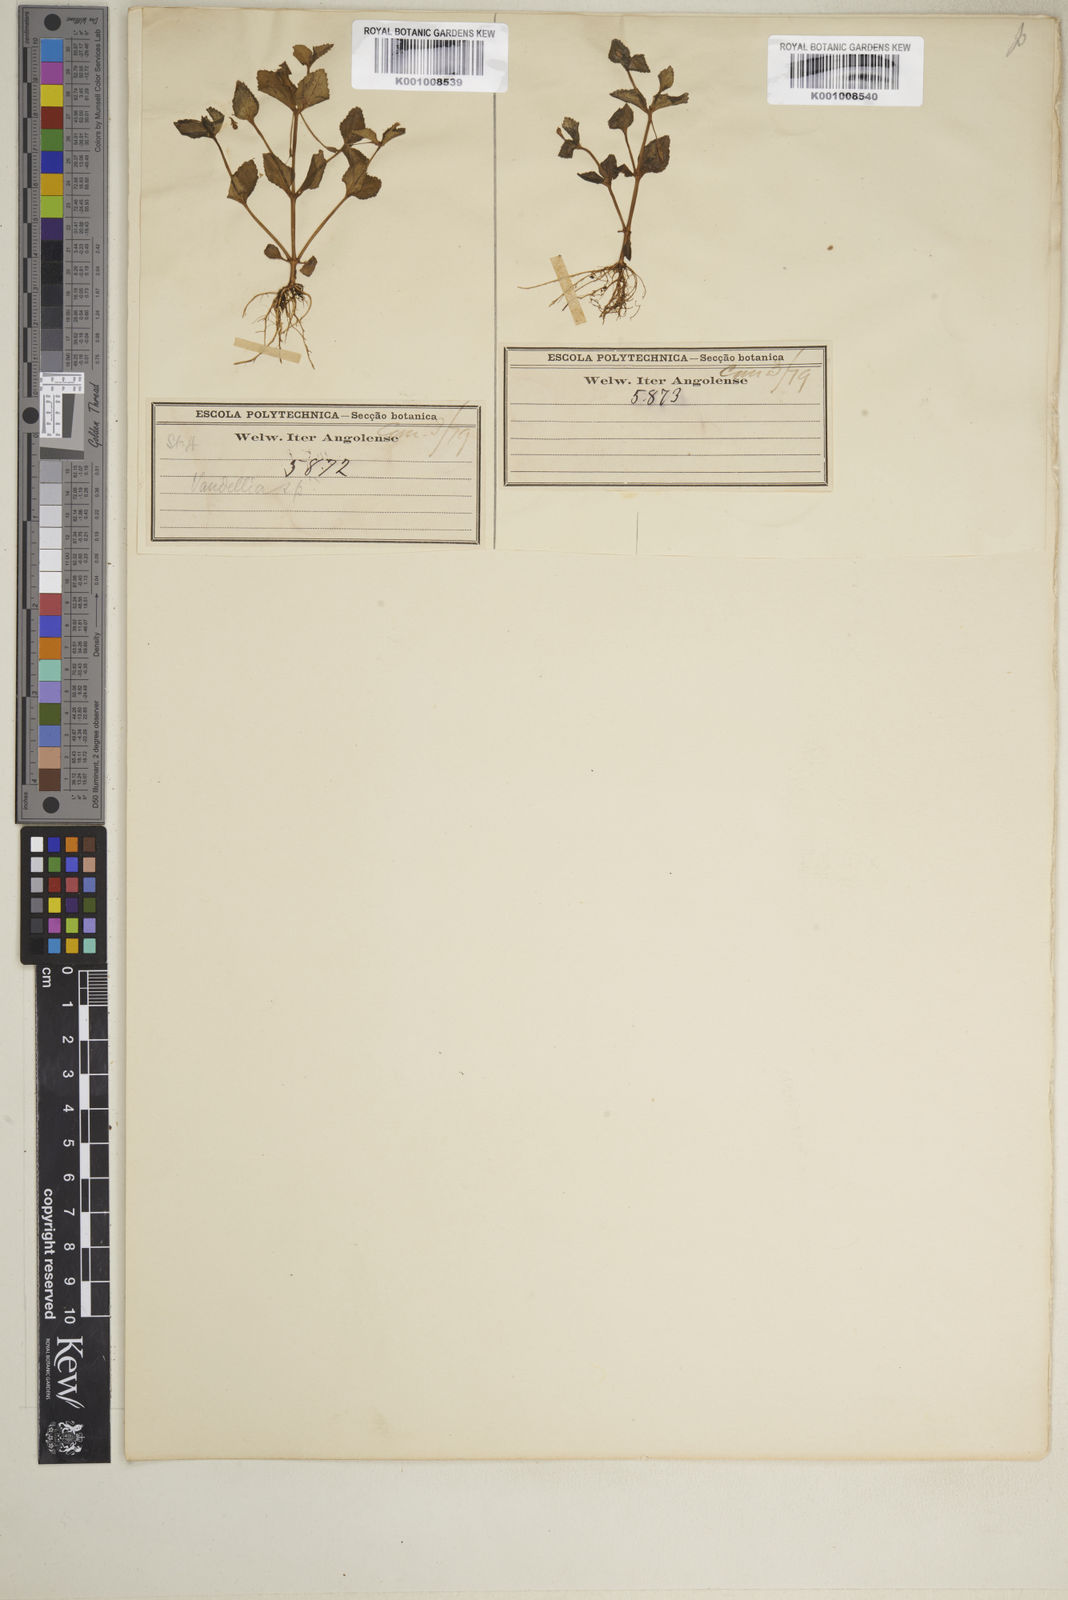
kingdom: Plantae
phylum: Tracheophyta
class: Magnoliopsida
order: Lamiales
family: Linderniaceae
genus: Craterostigma
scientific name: Craterostigma nummulariifolium
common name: False pimpernel
